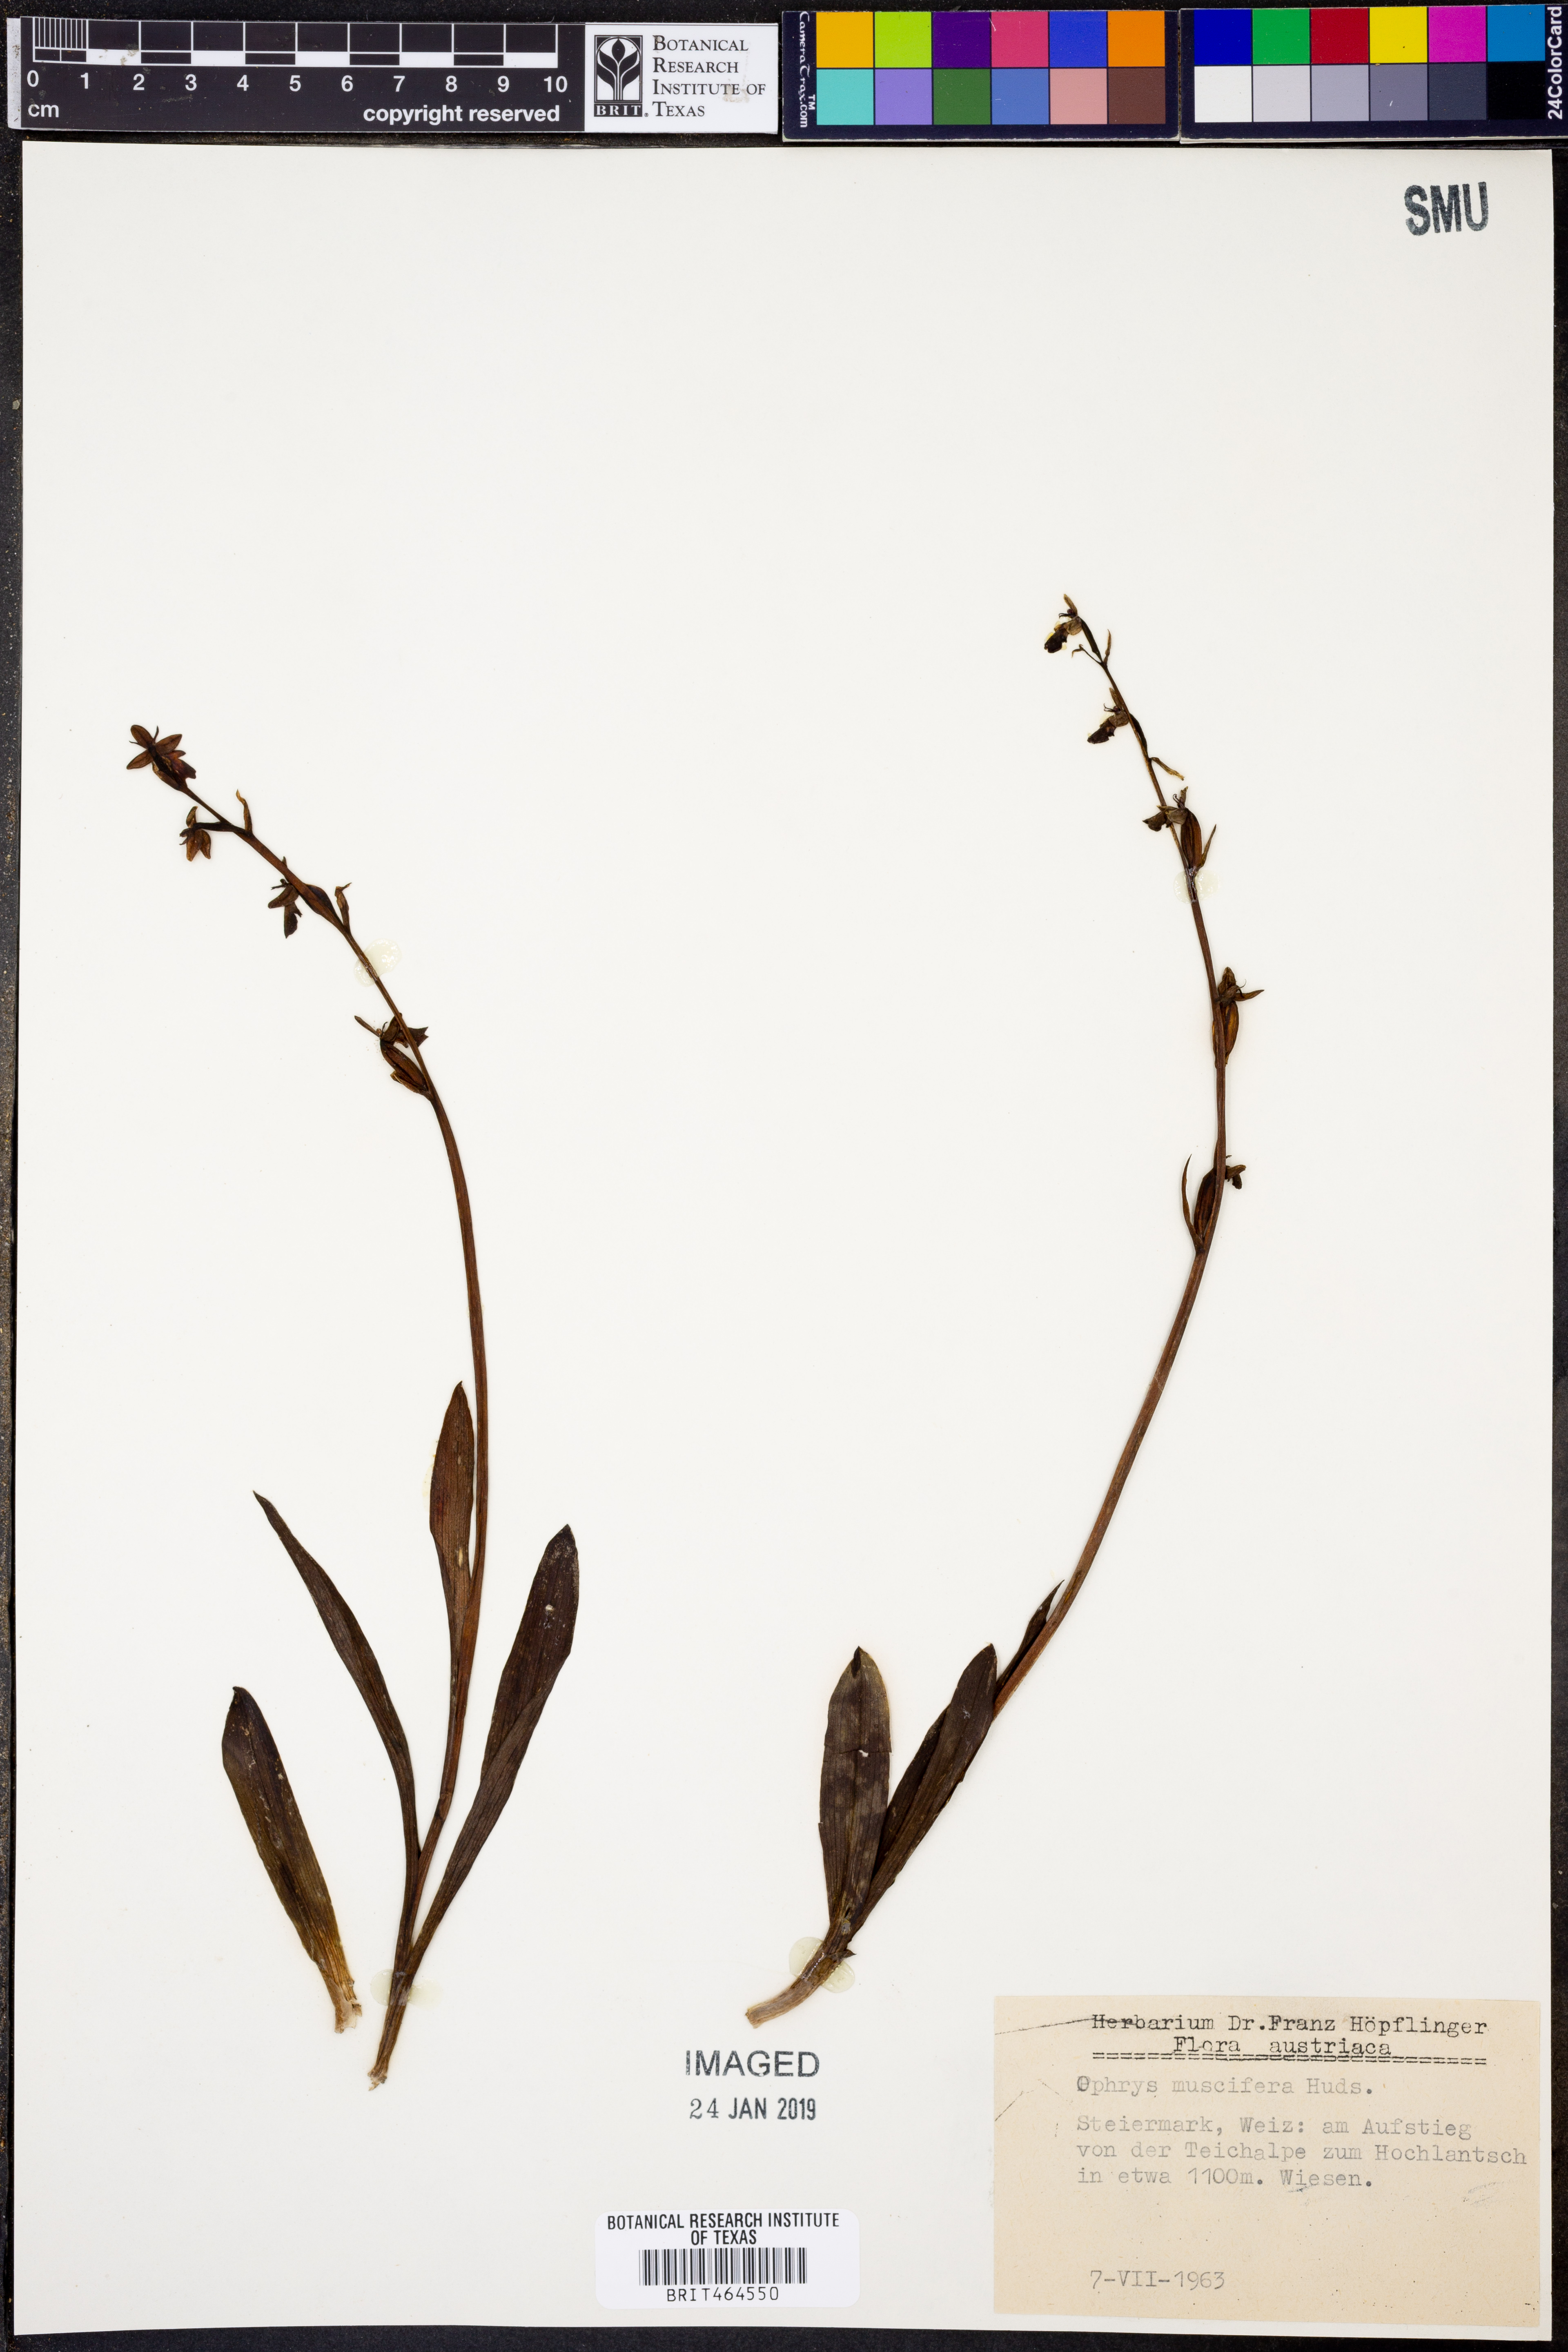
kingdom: Plantae
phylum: Tracheophyta
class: Liliopsida
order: Asparagales
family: Orchidaceae
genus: Ophrys
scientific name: Ophrys insectifera
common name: Fly orchid
